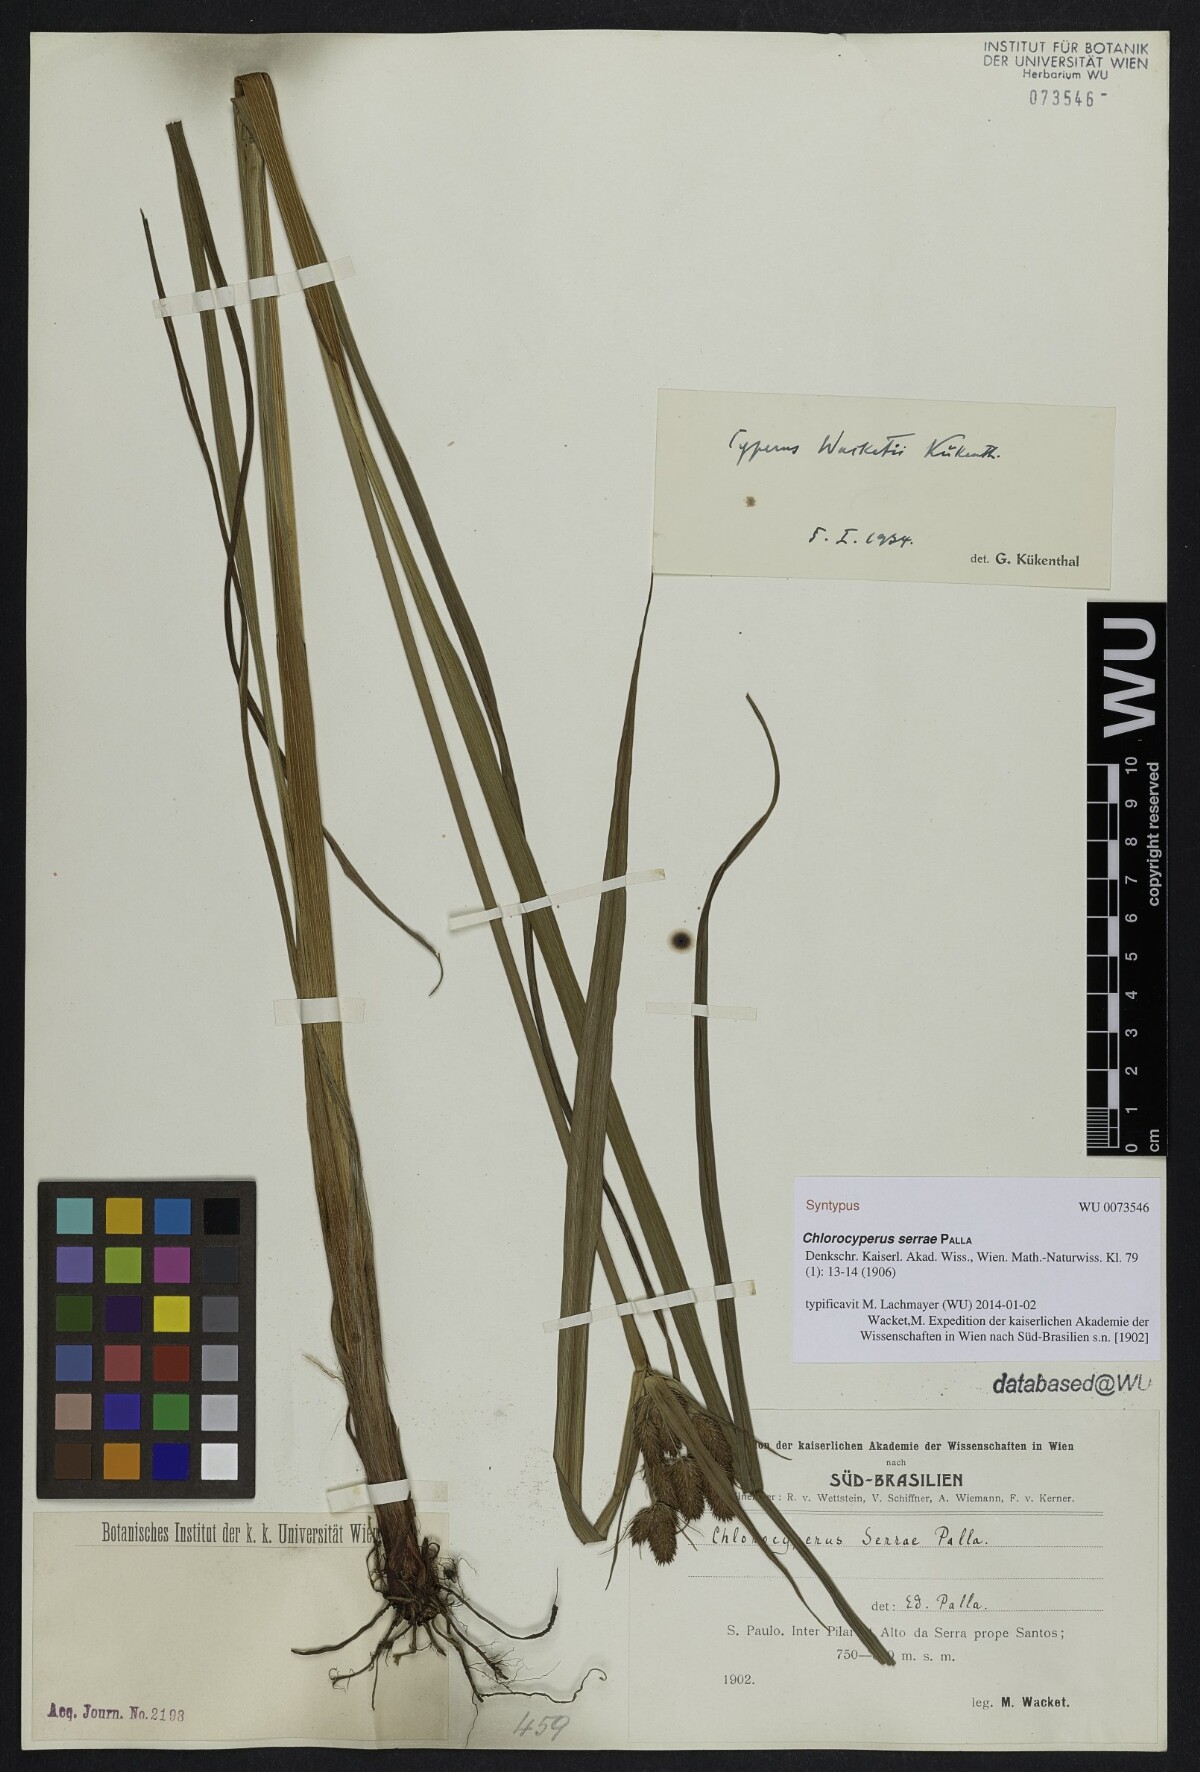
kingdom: Plantae
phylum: Tracheophyta
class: Liliopsida
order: Poales
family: Cyperaceae
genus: Cyperus
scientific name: Cyperus rigens
